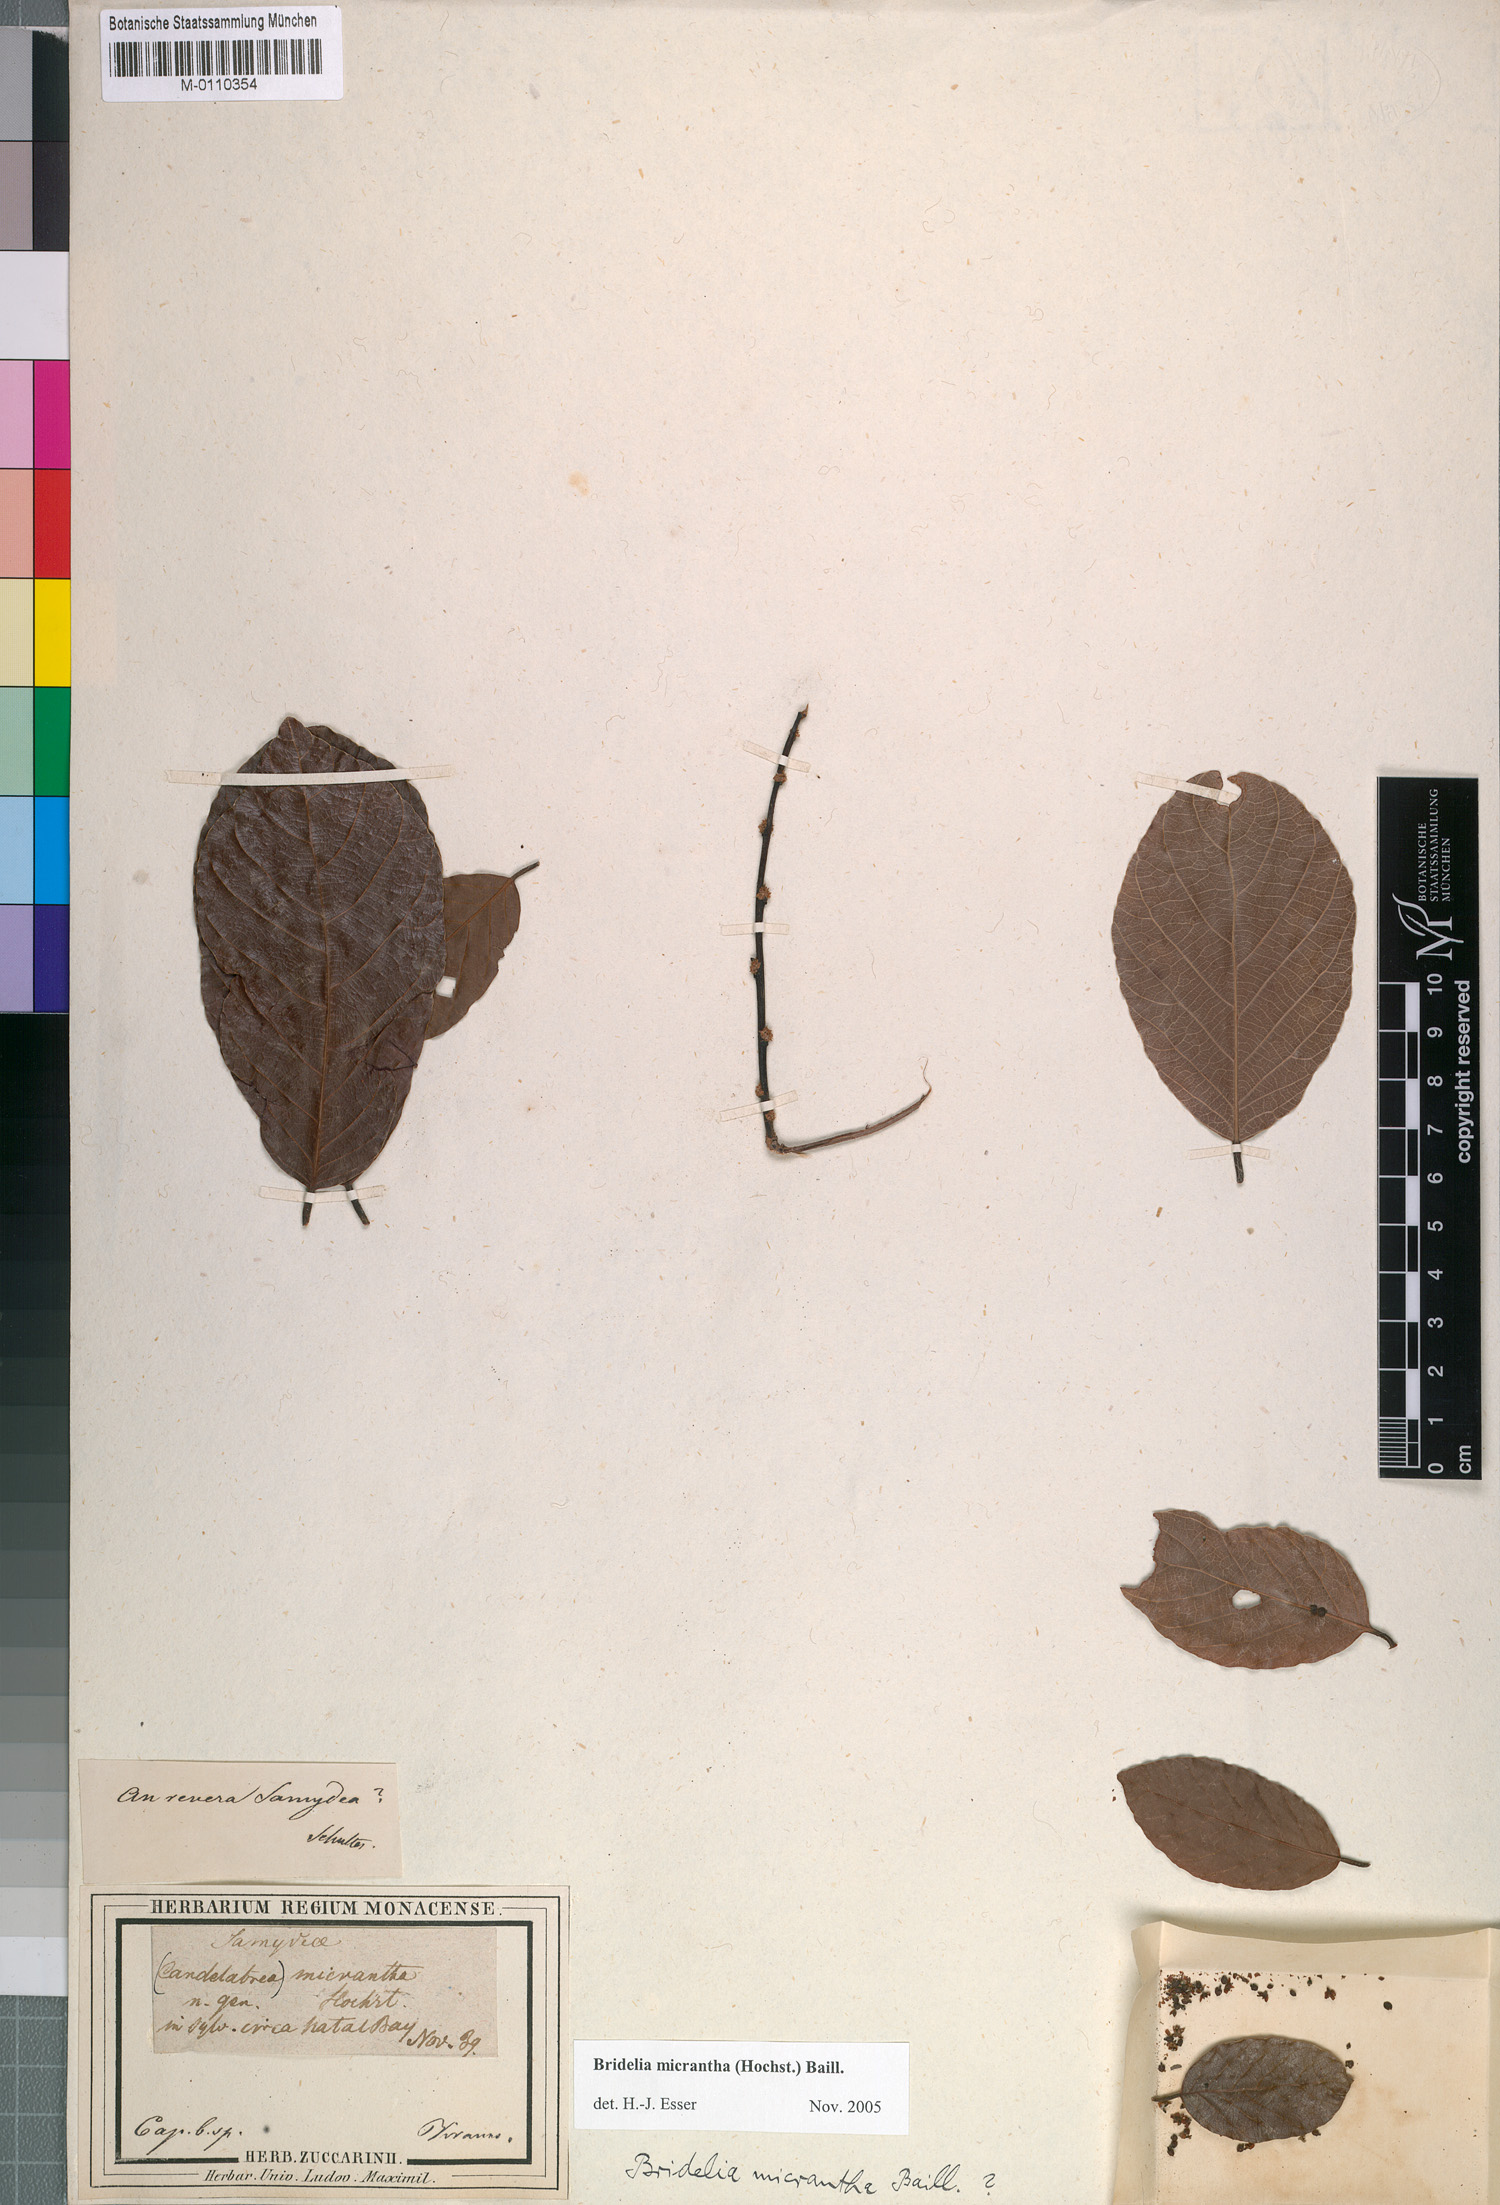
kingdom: Plantae
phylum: Tracheophyta
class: Magnoliopsida
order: Malpighiales
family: Phyllanthaceae
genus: Bridelia
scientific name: Bridelia micrantha
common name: Bridelia
